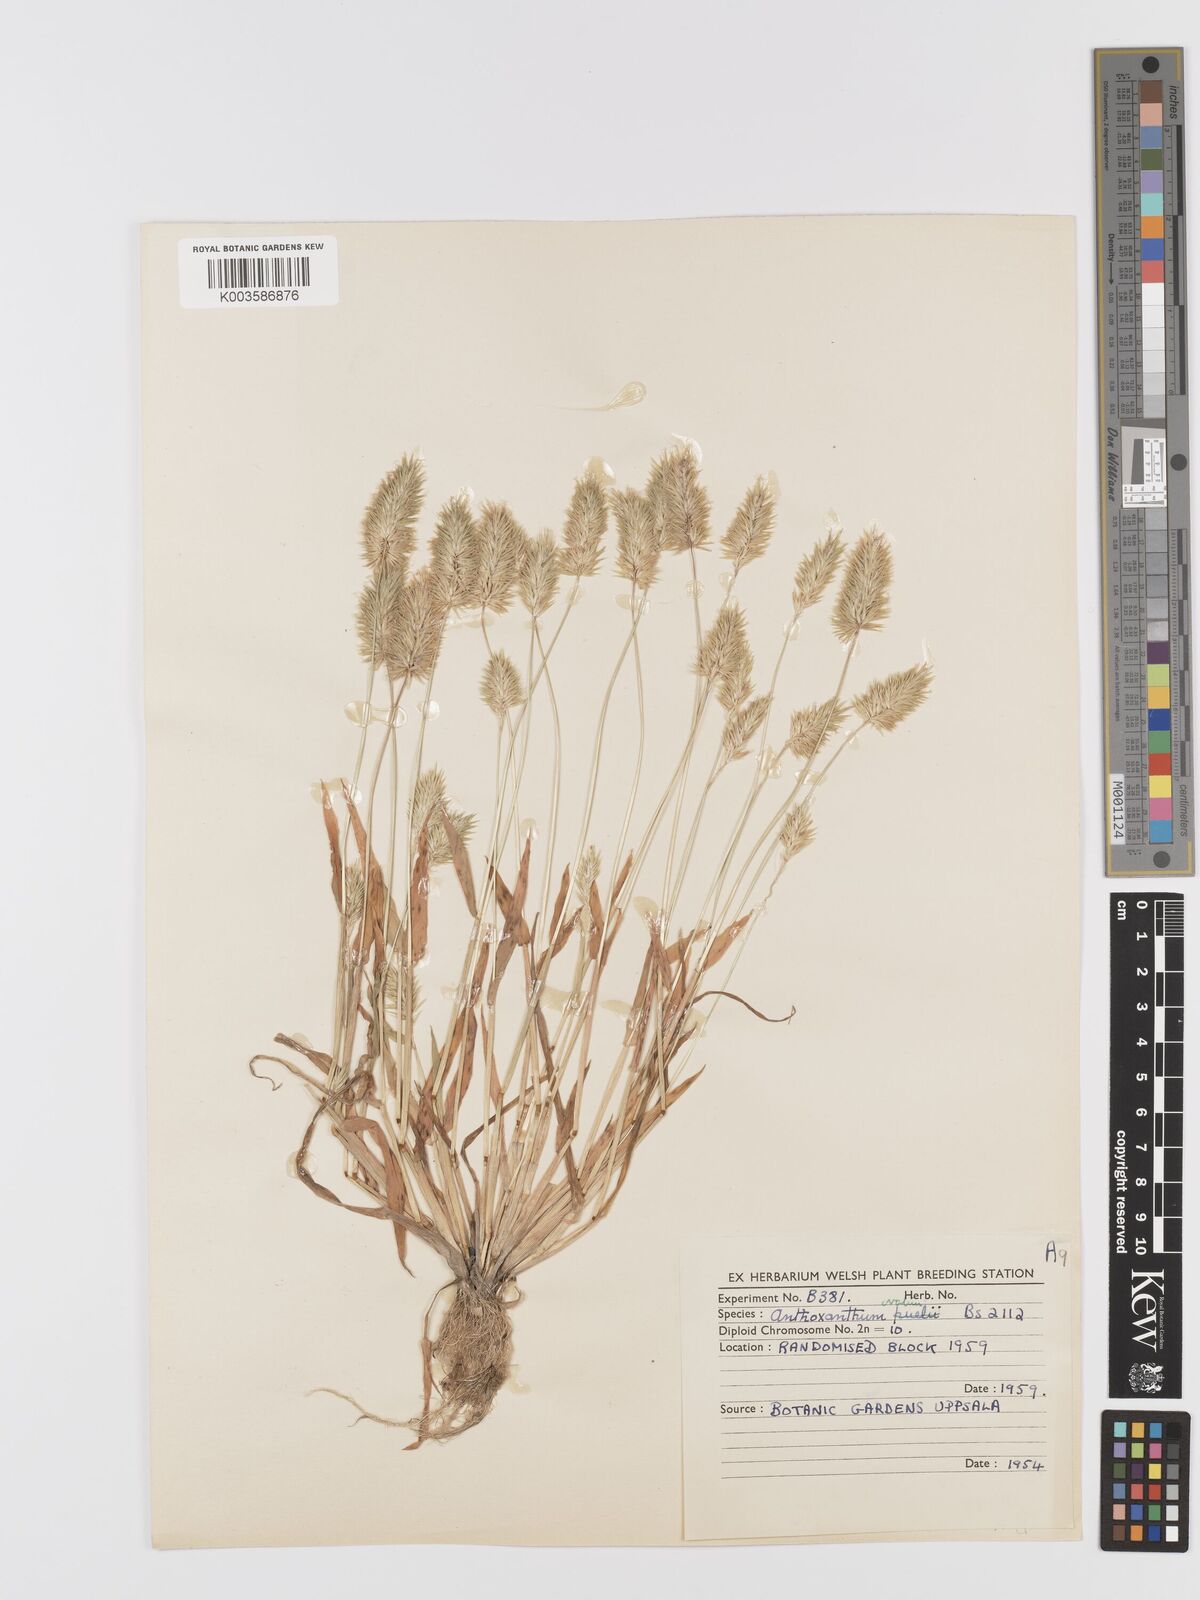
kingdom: Plantae
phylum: Tracheophyta
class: Liliopsida
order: Poales
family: Poaceae
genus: Anthoxanthum
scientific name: Anthoxanthum ovatum
